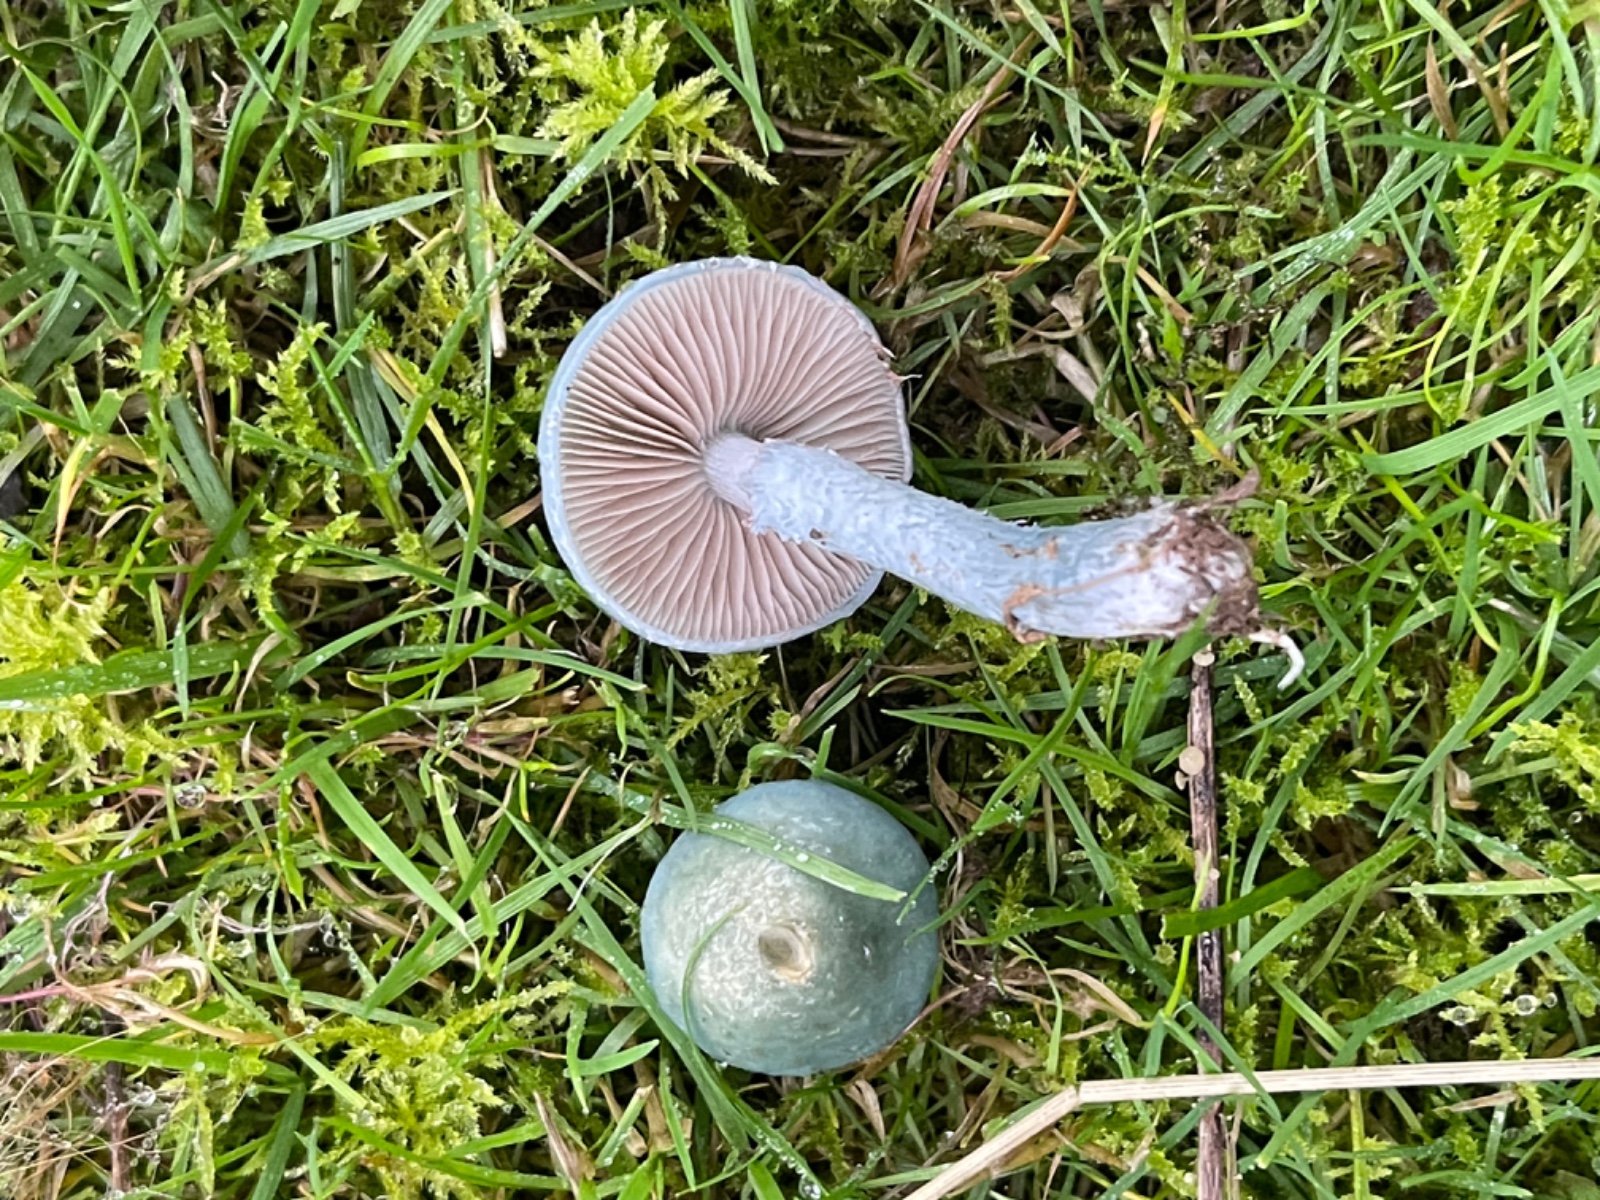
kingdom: Fungi
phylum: Basidiomycota
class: Agaricomycetes
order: Agaricales
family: Strophariaceae
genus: Stropharia
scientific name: Stropharia cyanea
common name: blågrøn bredblad
